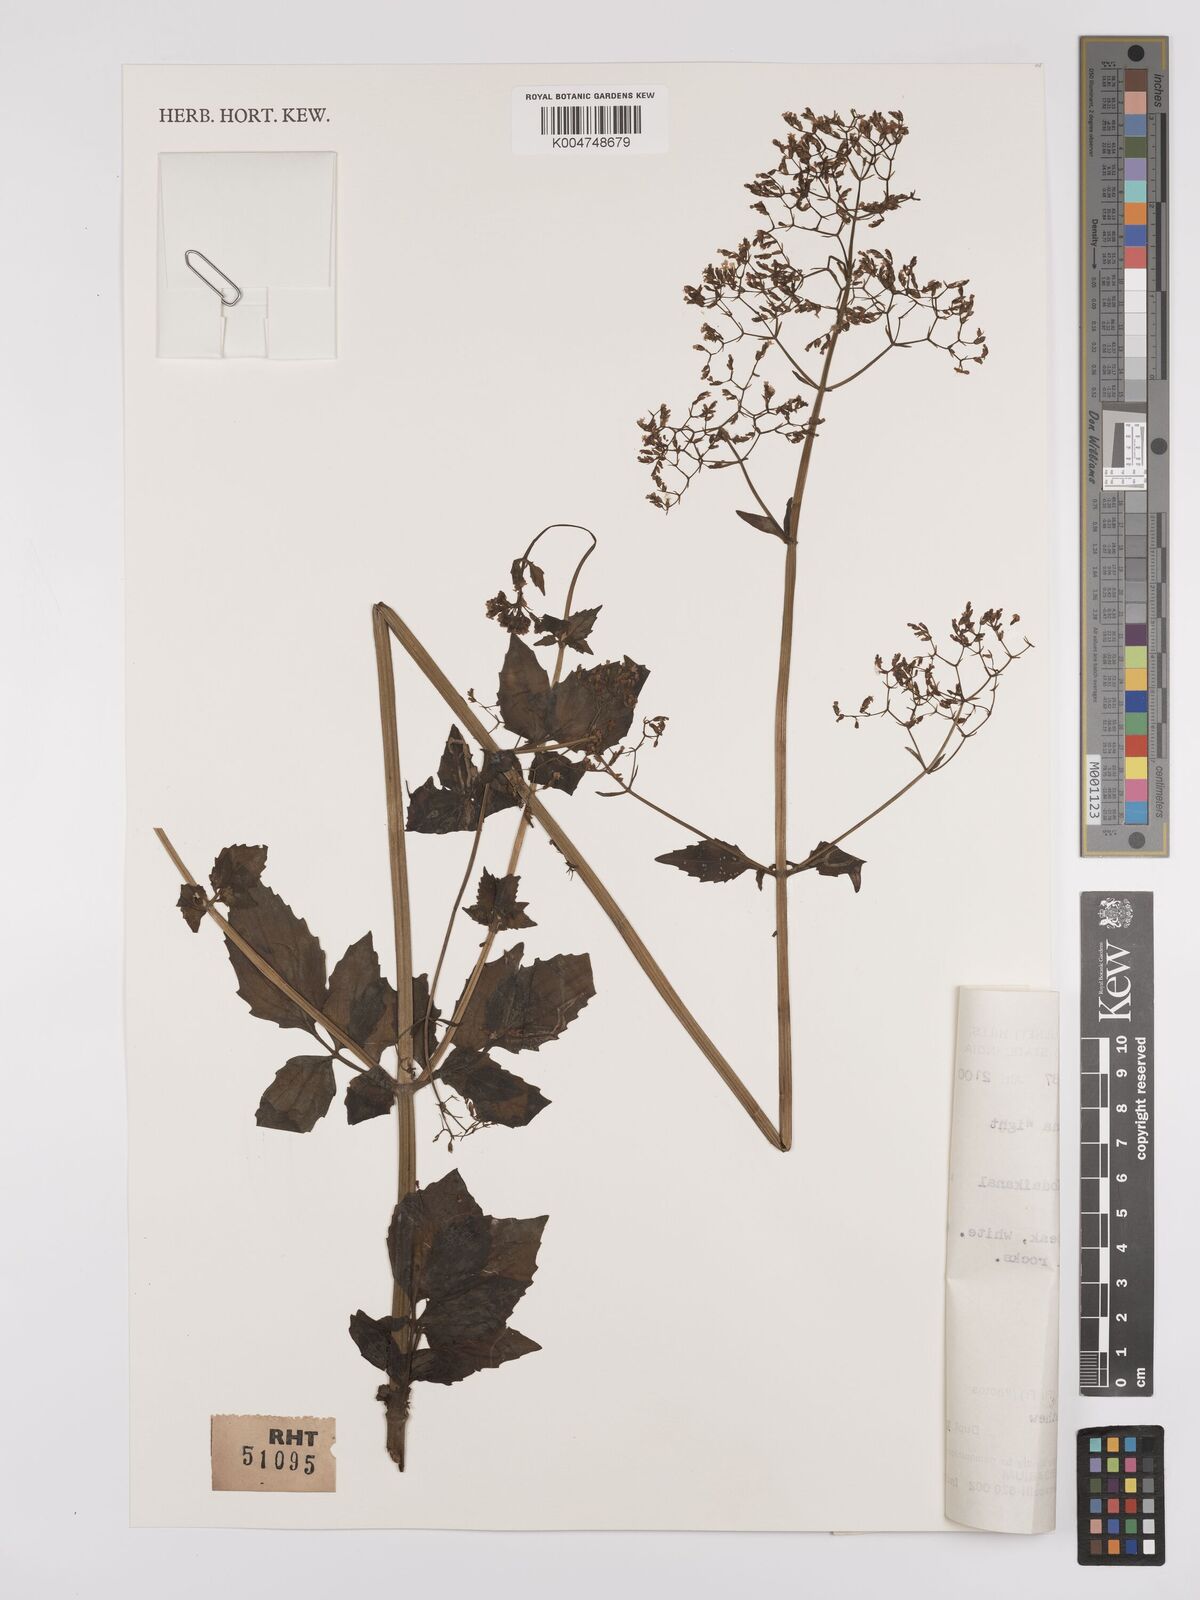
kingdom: Plantae
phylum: Tracheophyta
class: Magnoliopsida
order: Dipsacales
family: Caprifoliaceae
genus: Valeriana
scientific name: Valeriana hardwickei
